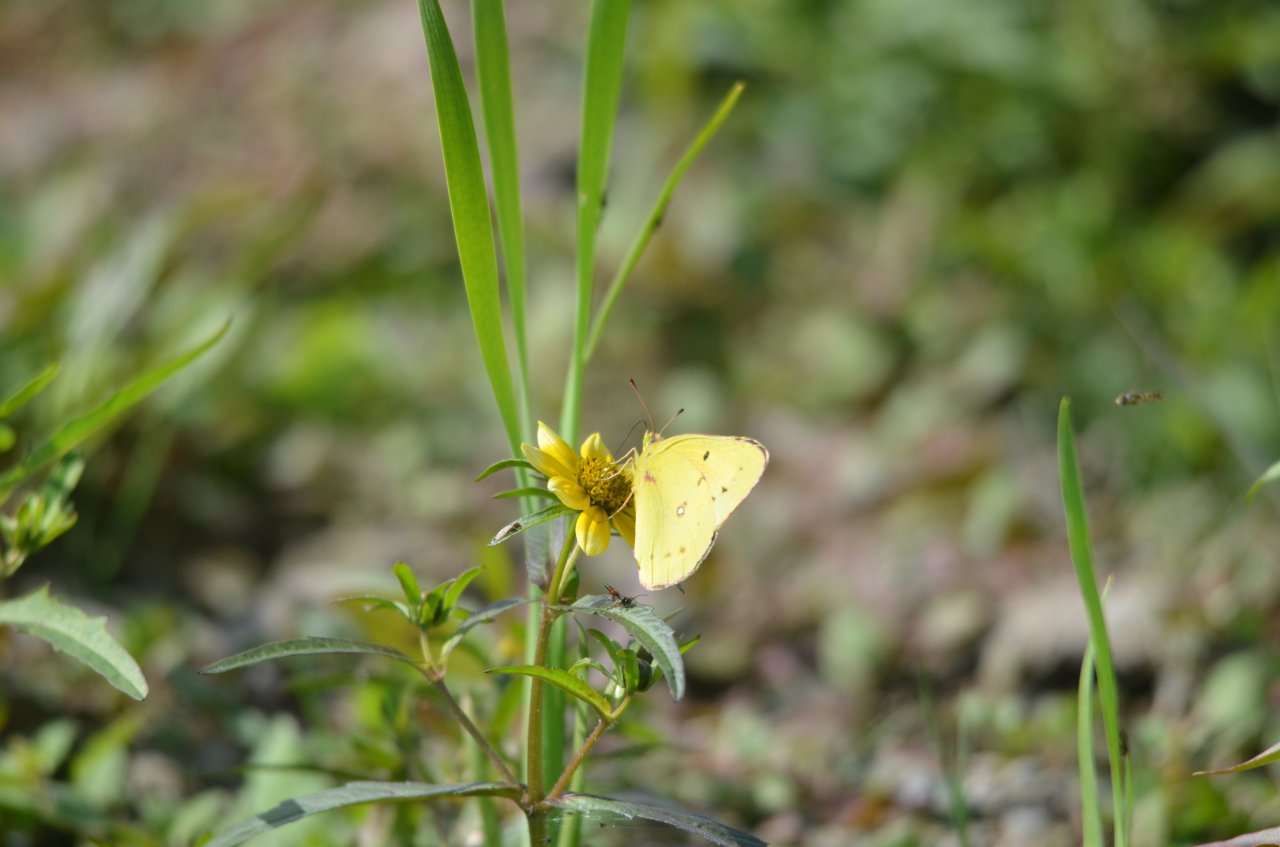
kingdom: Animalia
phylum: Arthropoda
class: Insecta
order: Lepidoptera
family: Pieridae
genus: Colias
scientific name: Colias philodice
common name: Clouded Sulphur
